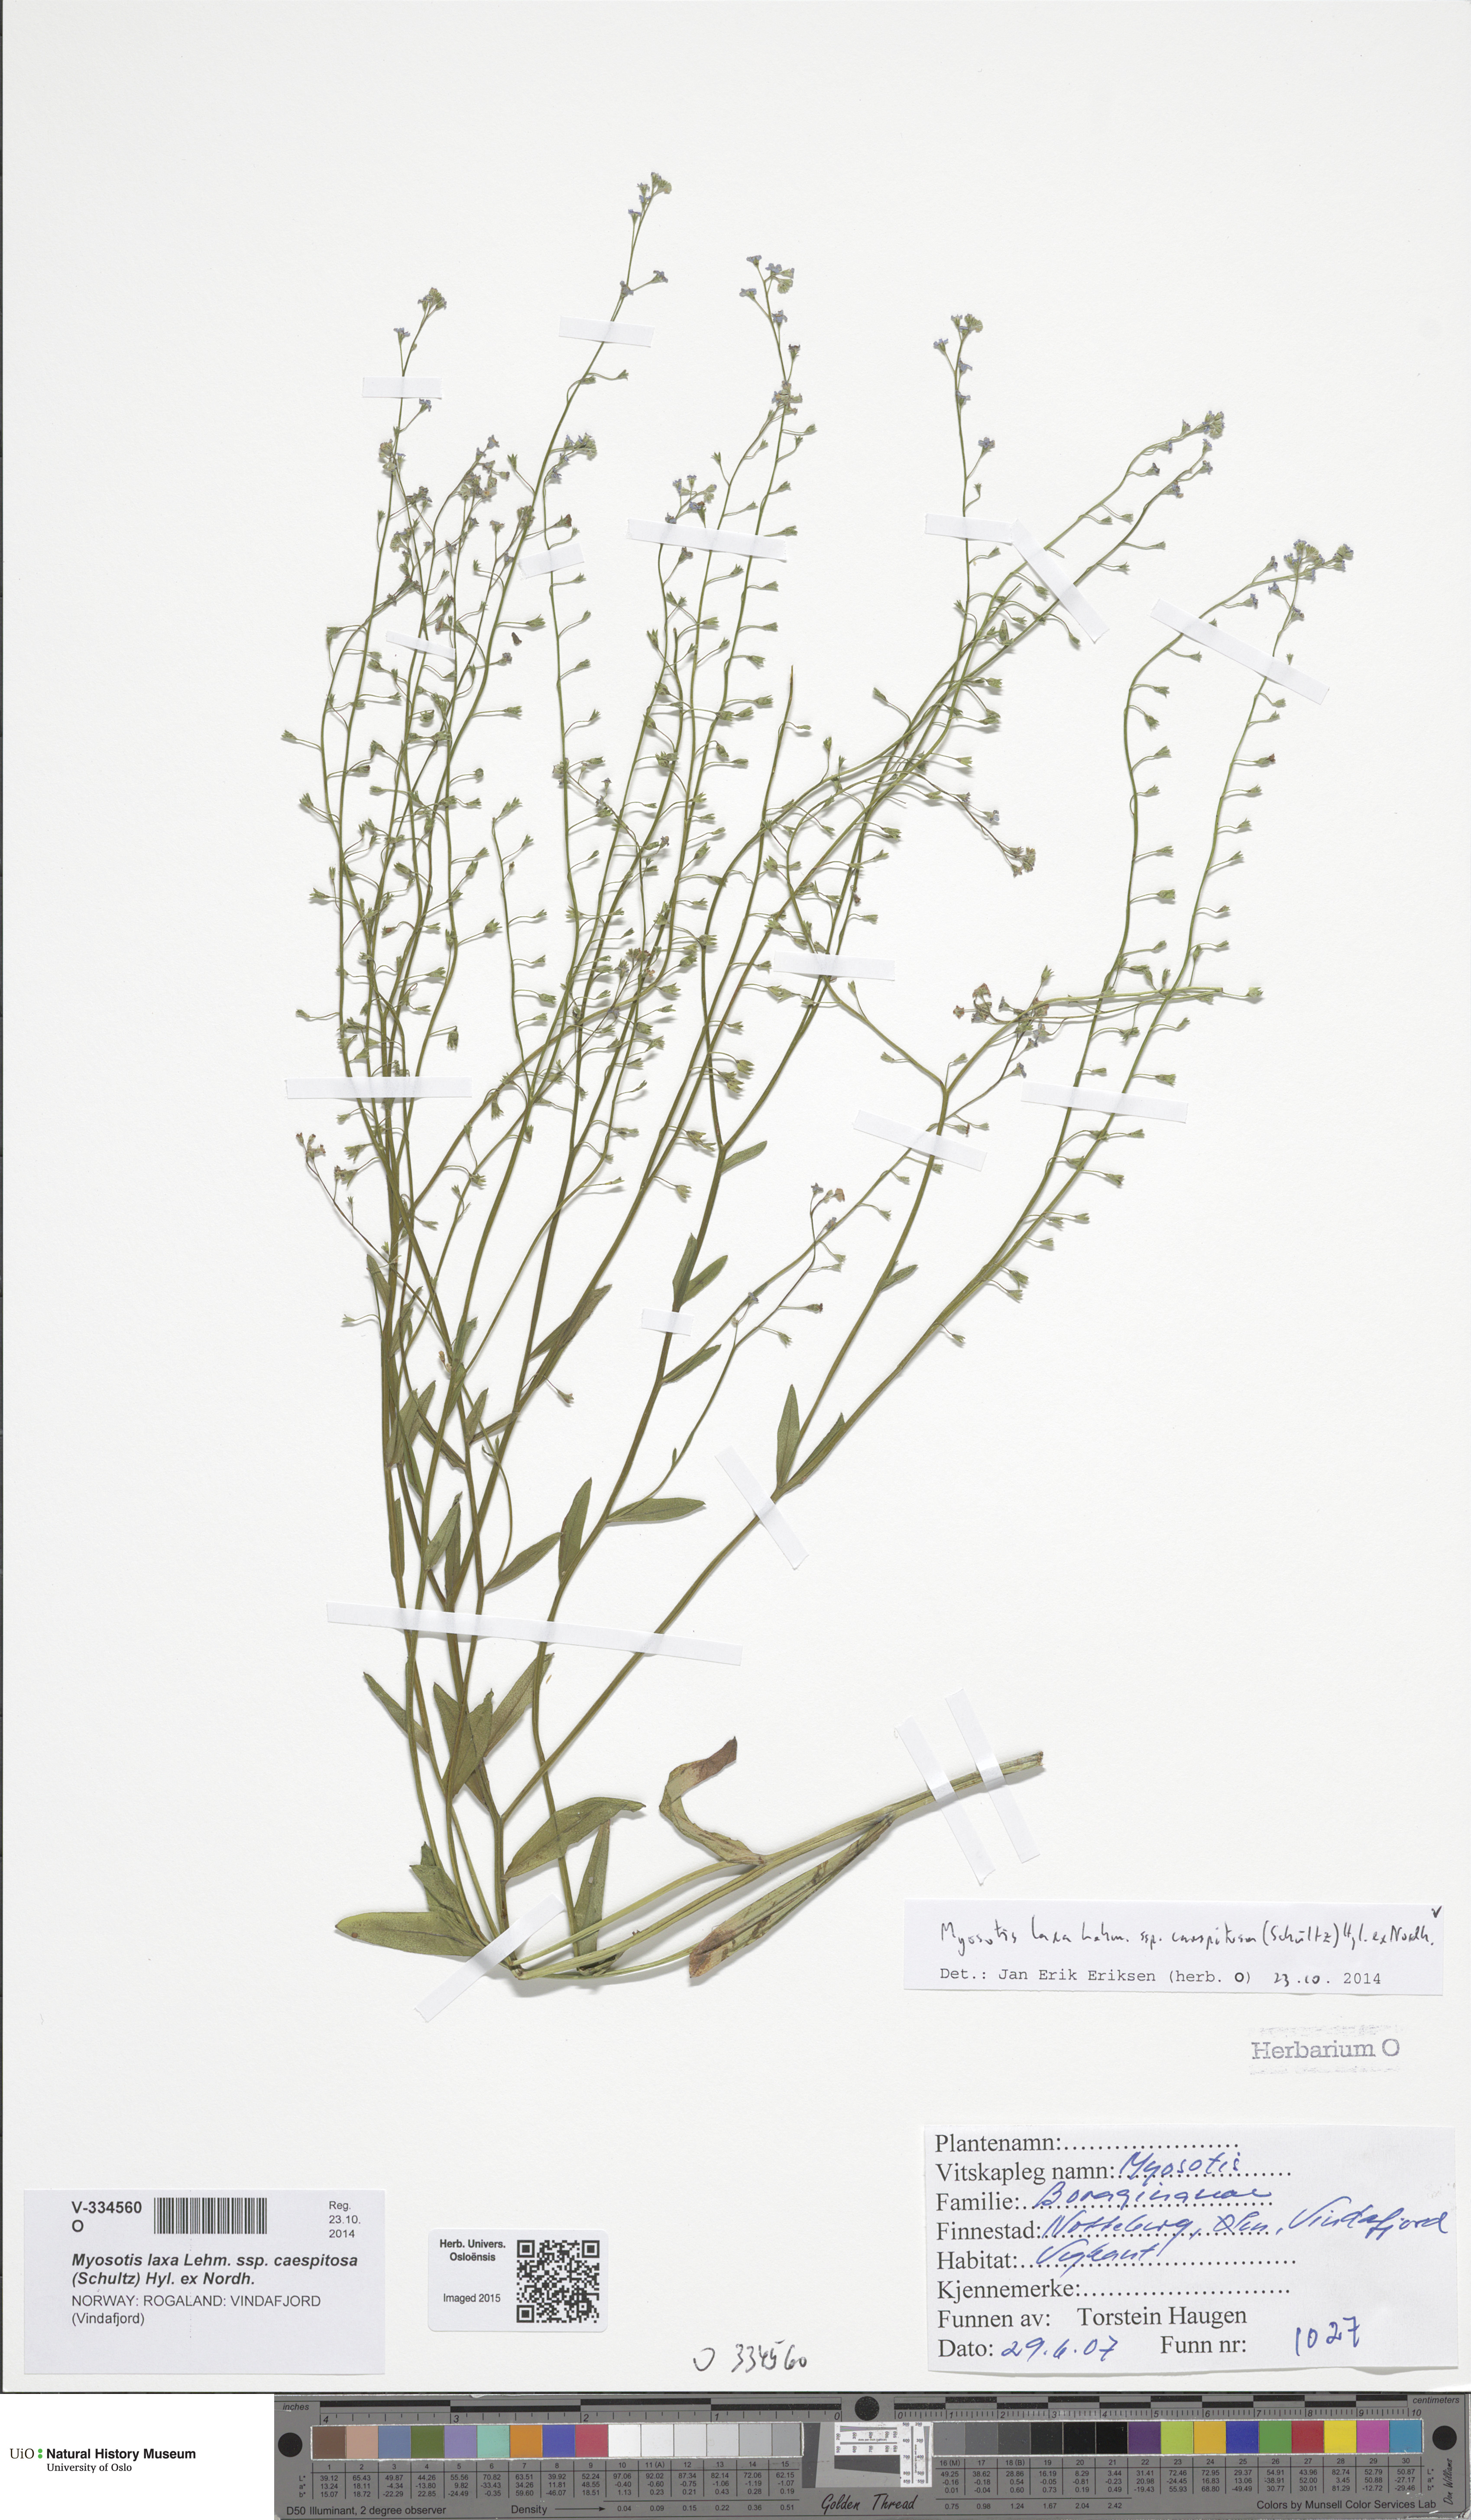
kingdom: Plantae
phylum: Tracheophyta
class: Magnoliopsida
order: Boraginales
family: Boraginaceae
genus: Myosotis
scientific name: Myosotis laxa
